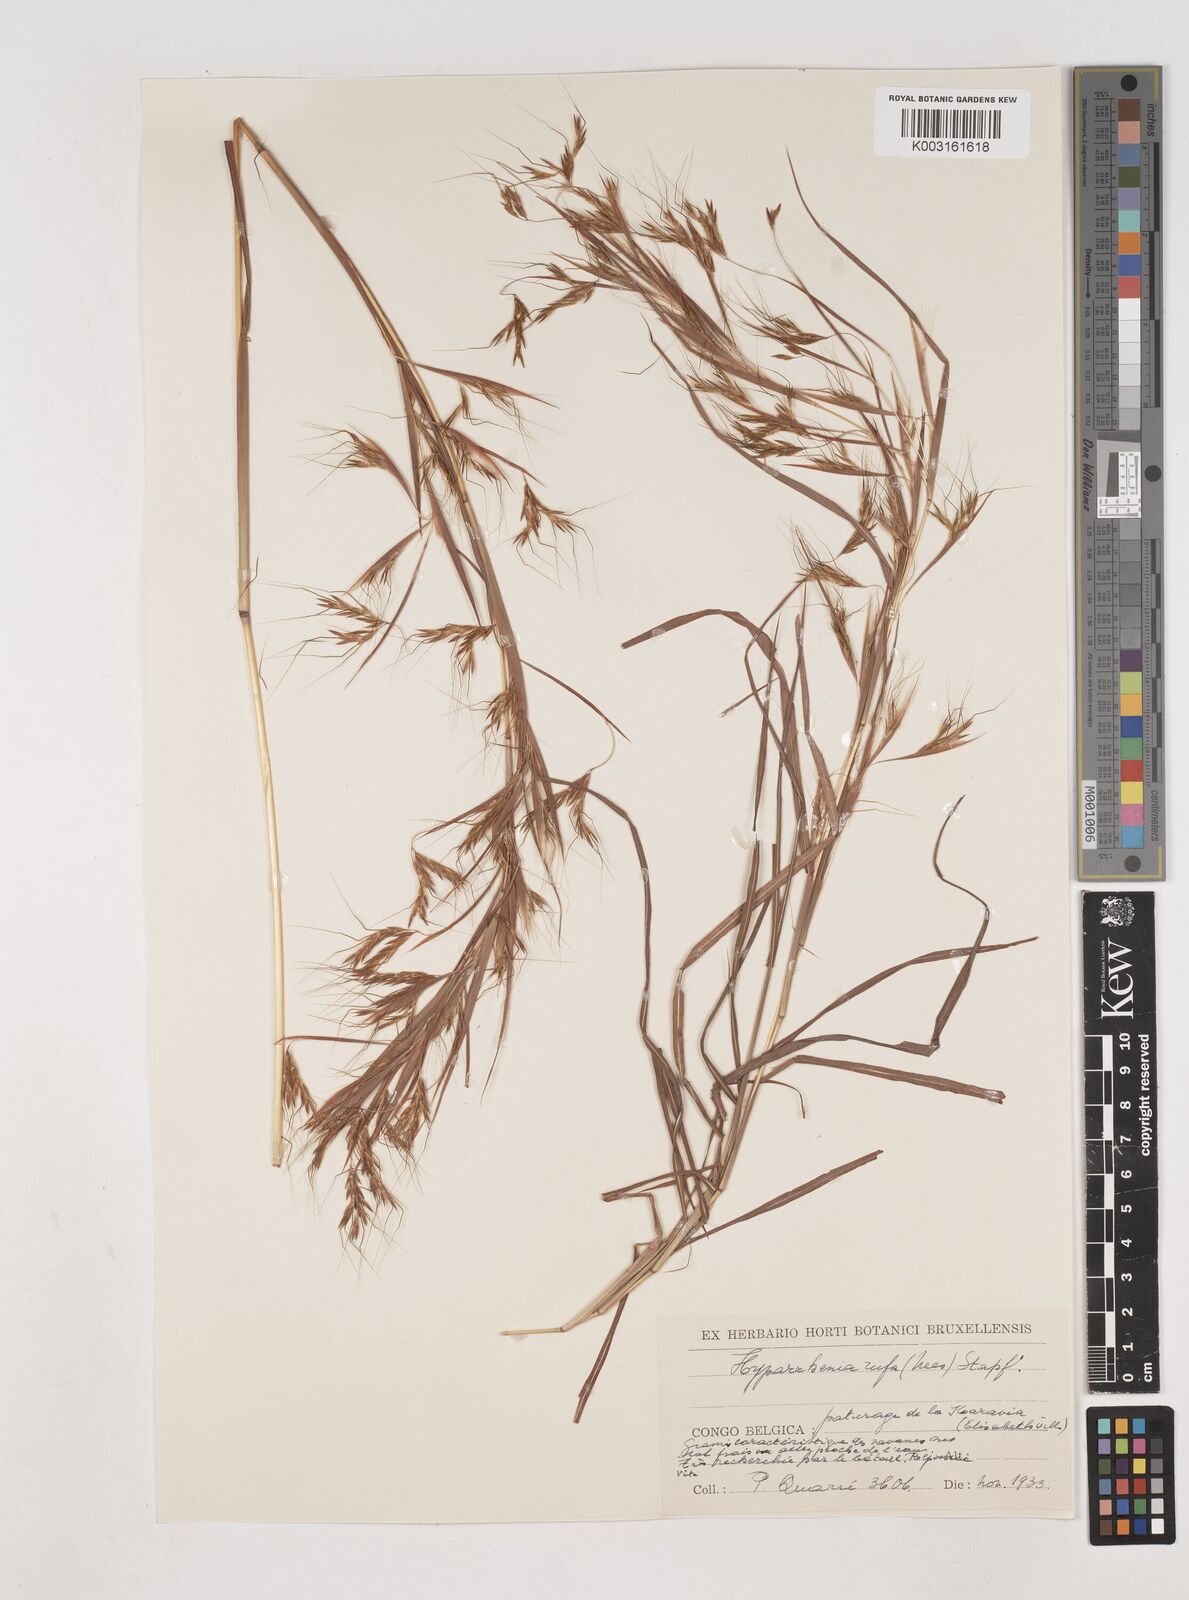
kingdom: Plantae
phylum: Tracheophyta
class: Liliopsida
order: Poales
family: Poaceae
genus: Hyparrhenia
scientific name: Hyparrhenia rufa
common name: Jaraguagrass
